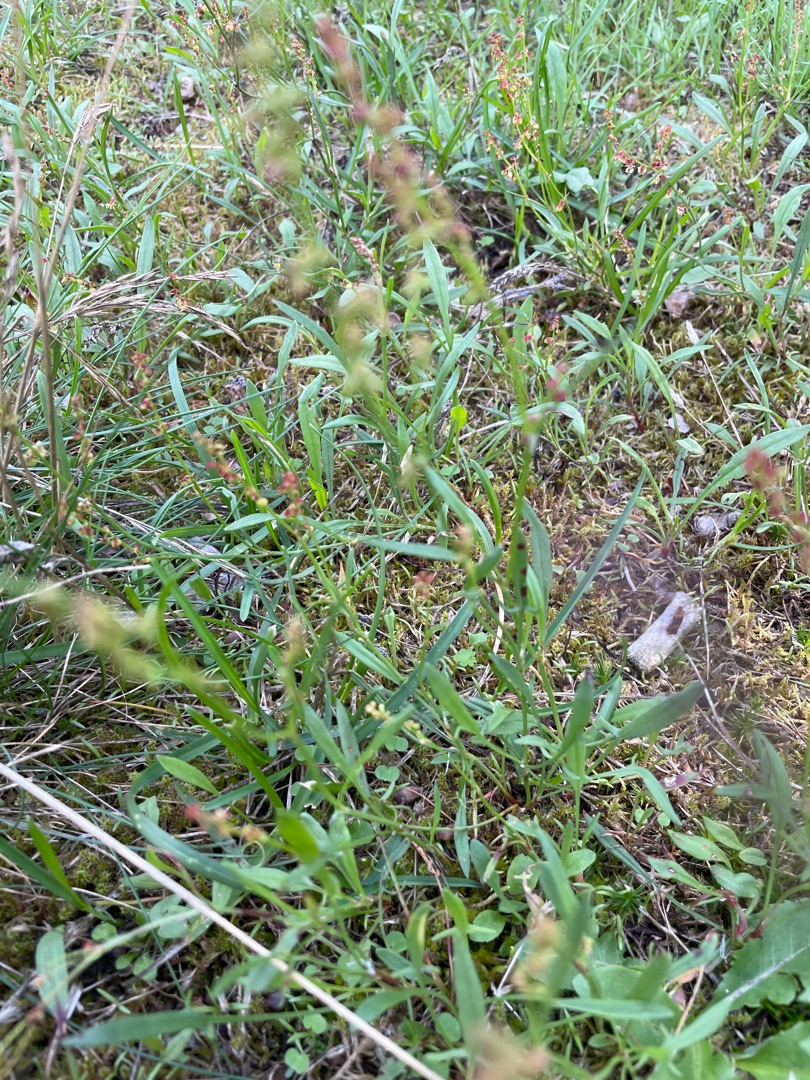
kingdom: Plantae
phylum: Tracheophyta
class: Magnoliopsida
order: Caryophyllales
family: Polygonaceae
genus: Rumex
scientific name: Rumex acetosella
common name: Rødknæ
